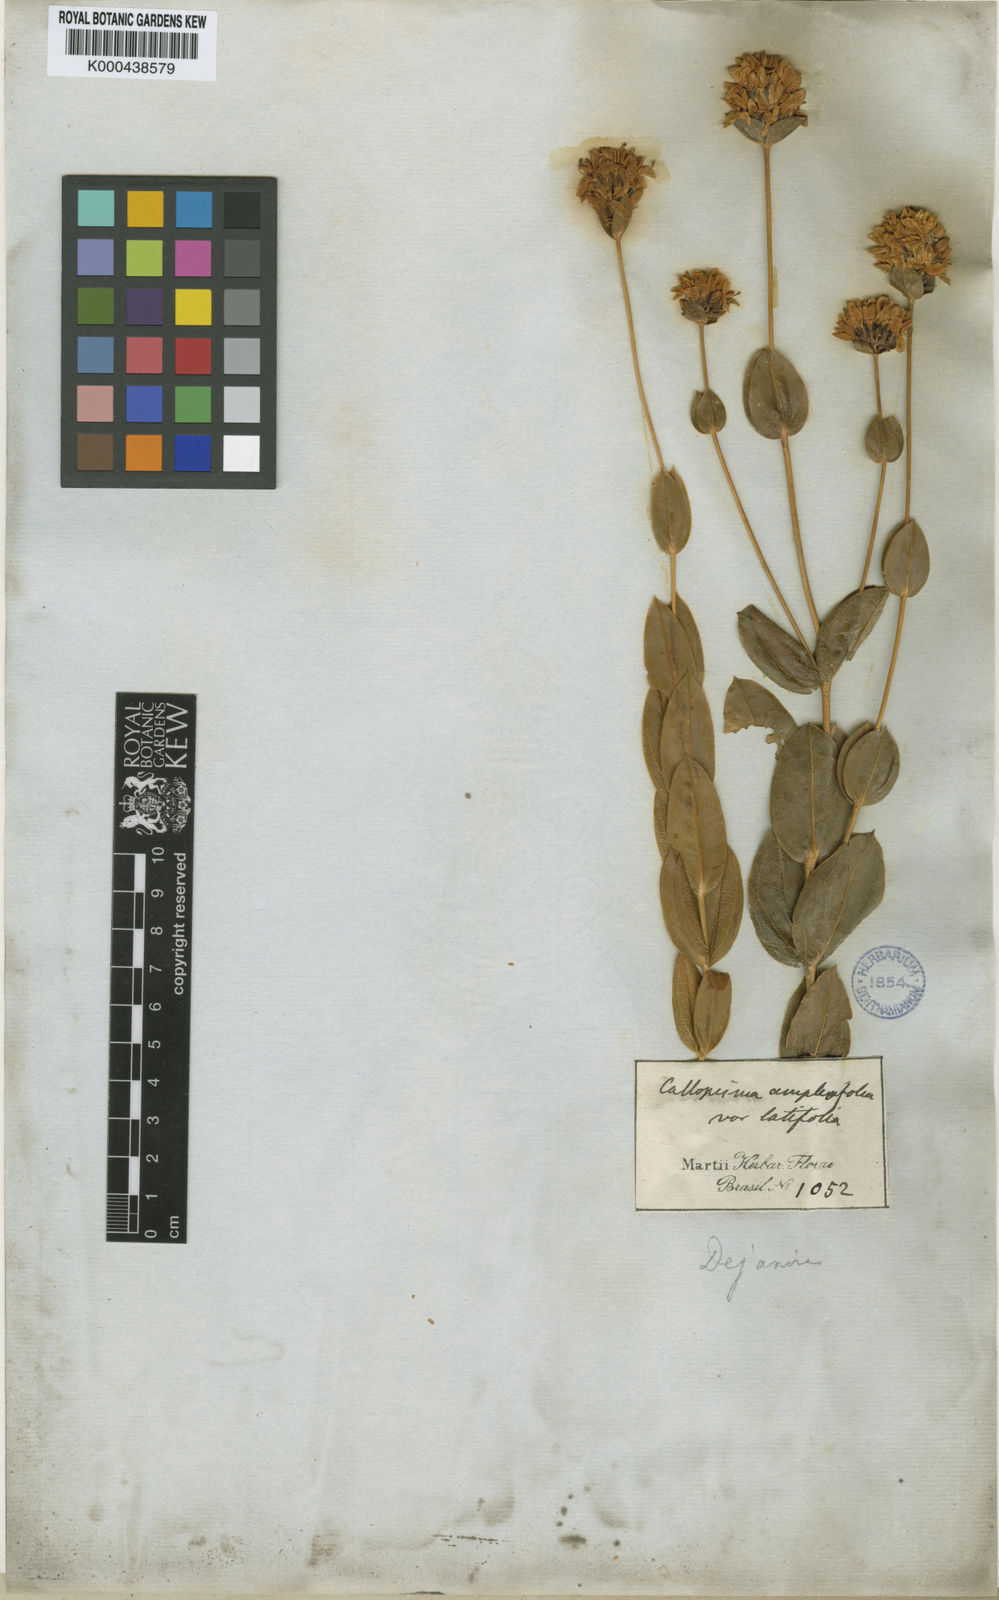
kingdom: Plantae
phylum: Tracheophyta
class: Magnoliopsida
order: Gentianales
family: Gentianaceae
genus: Deianira
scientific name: Deianira nervosa
